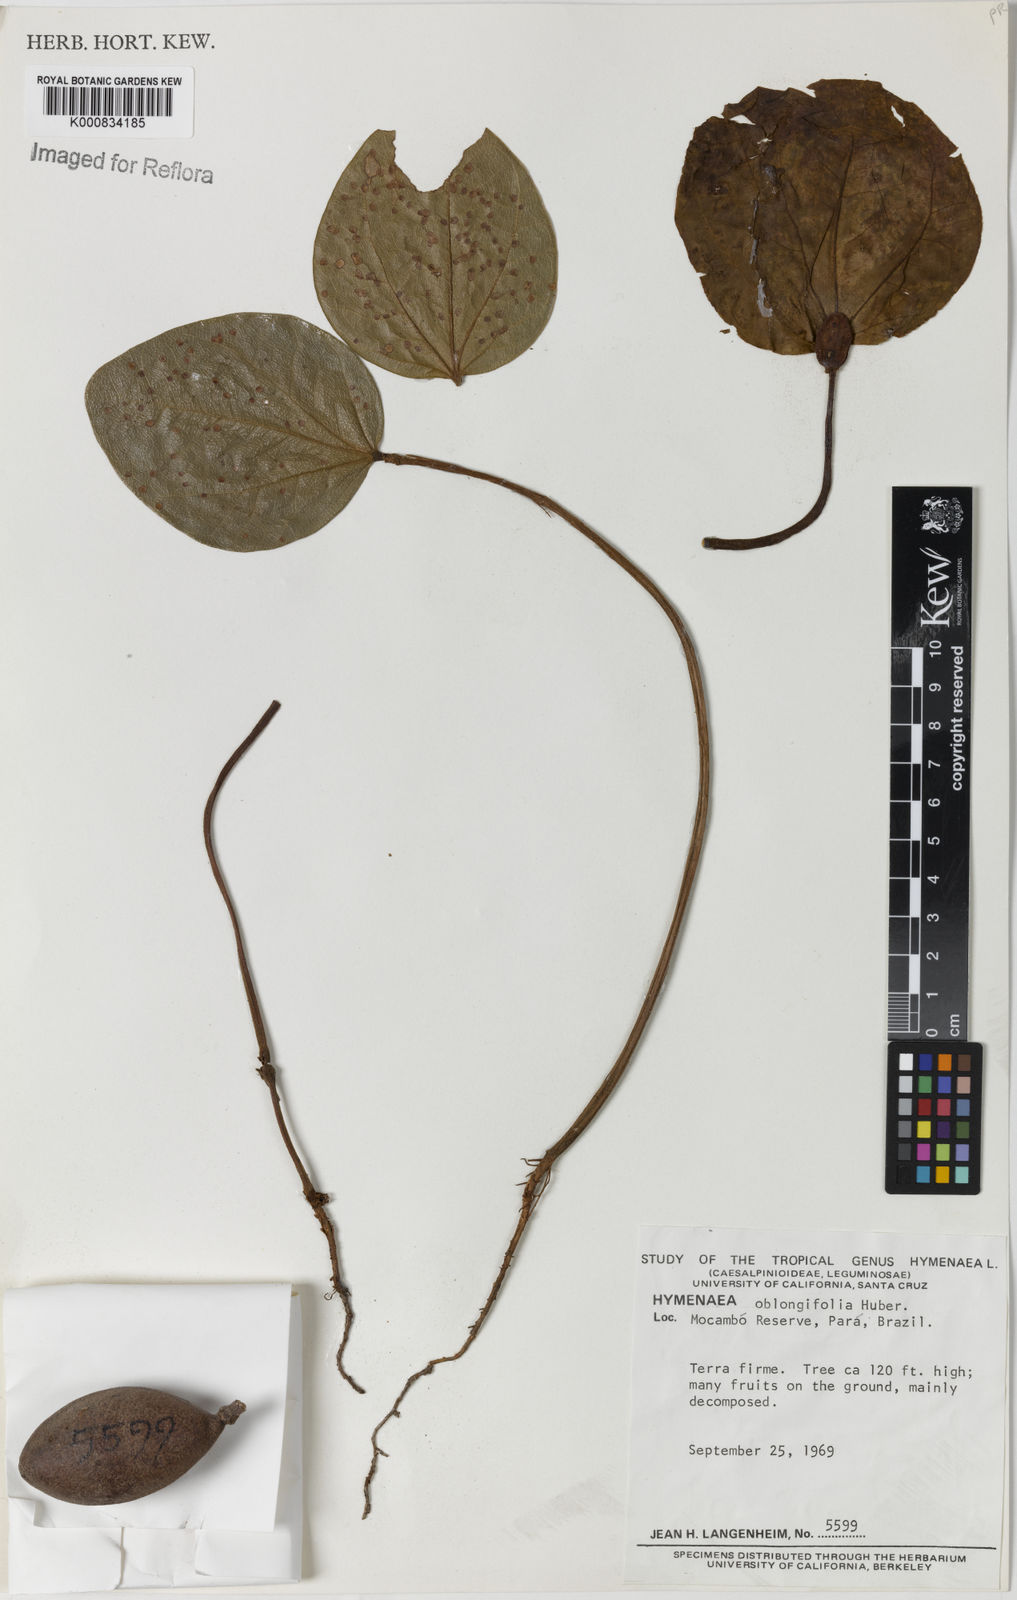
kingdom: Plantae
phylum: Tracheophyta
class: Magnoliopsida
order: Fabales
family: Fabaceae
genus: Hymenaea
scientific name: Hymenaea oblongifolia
